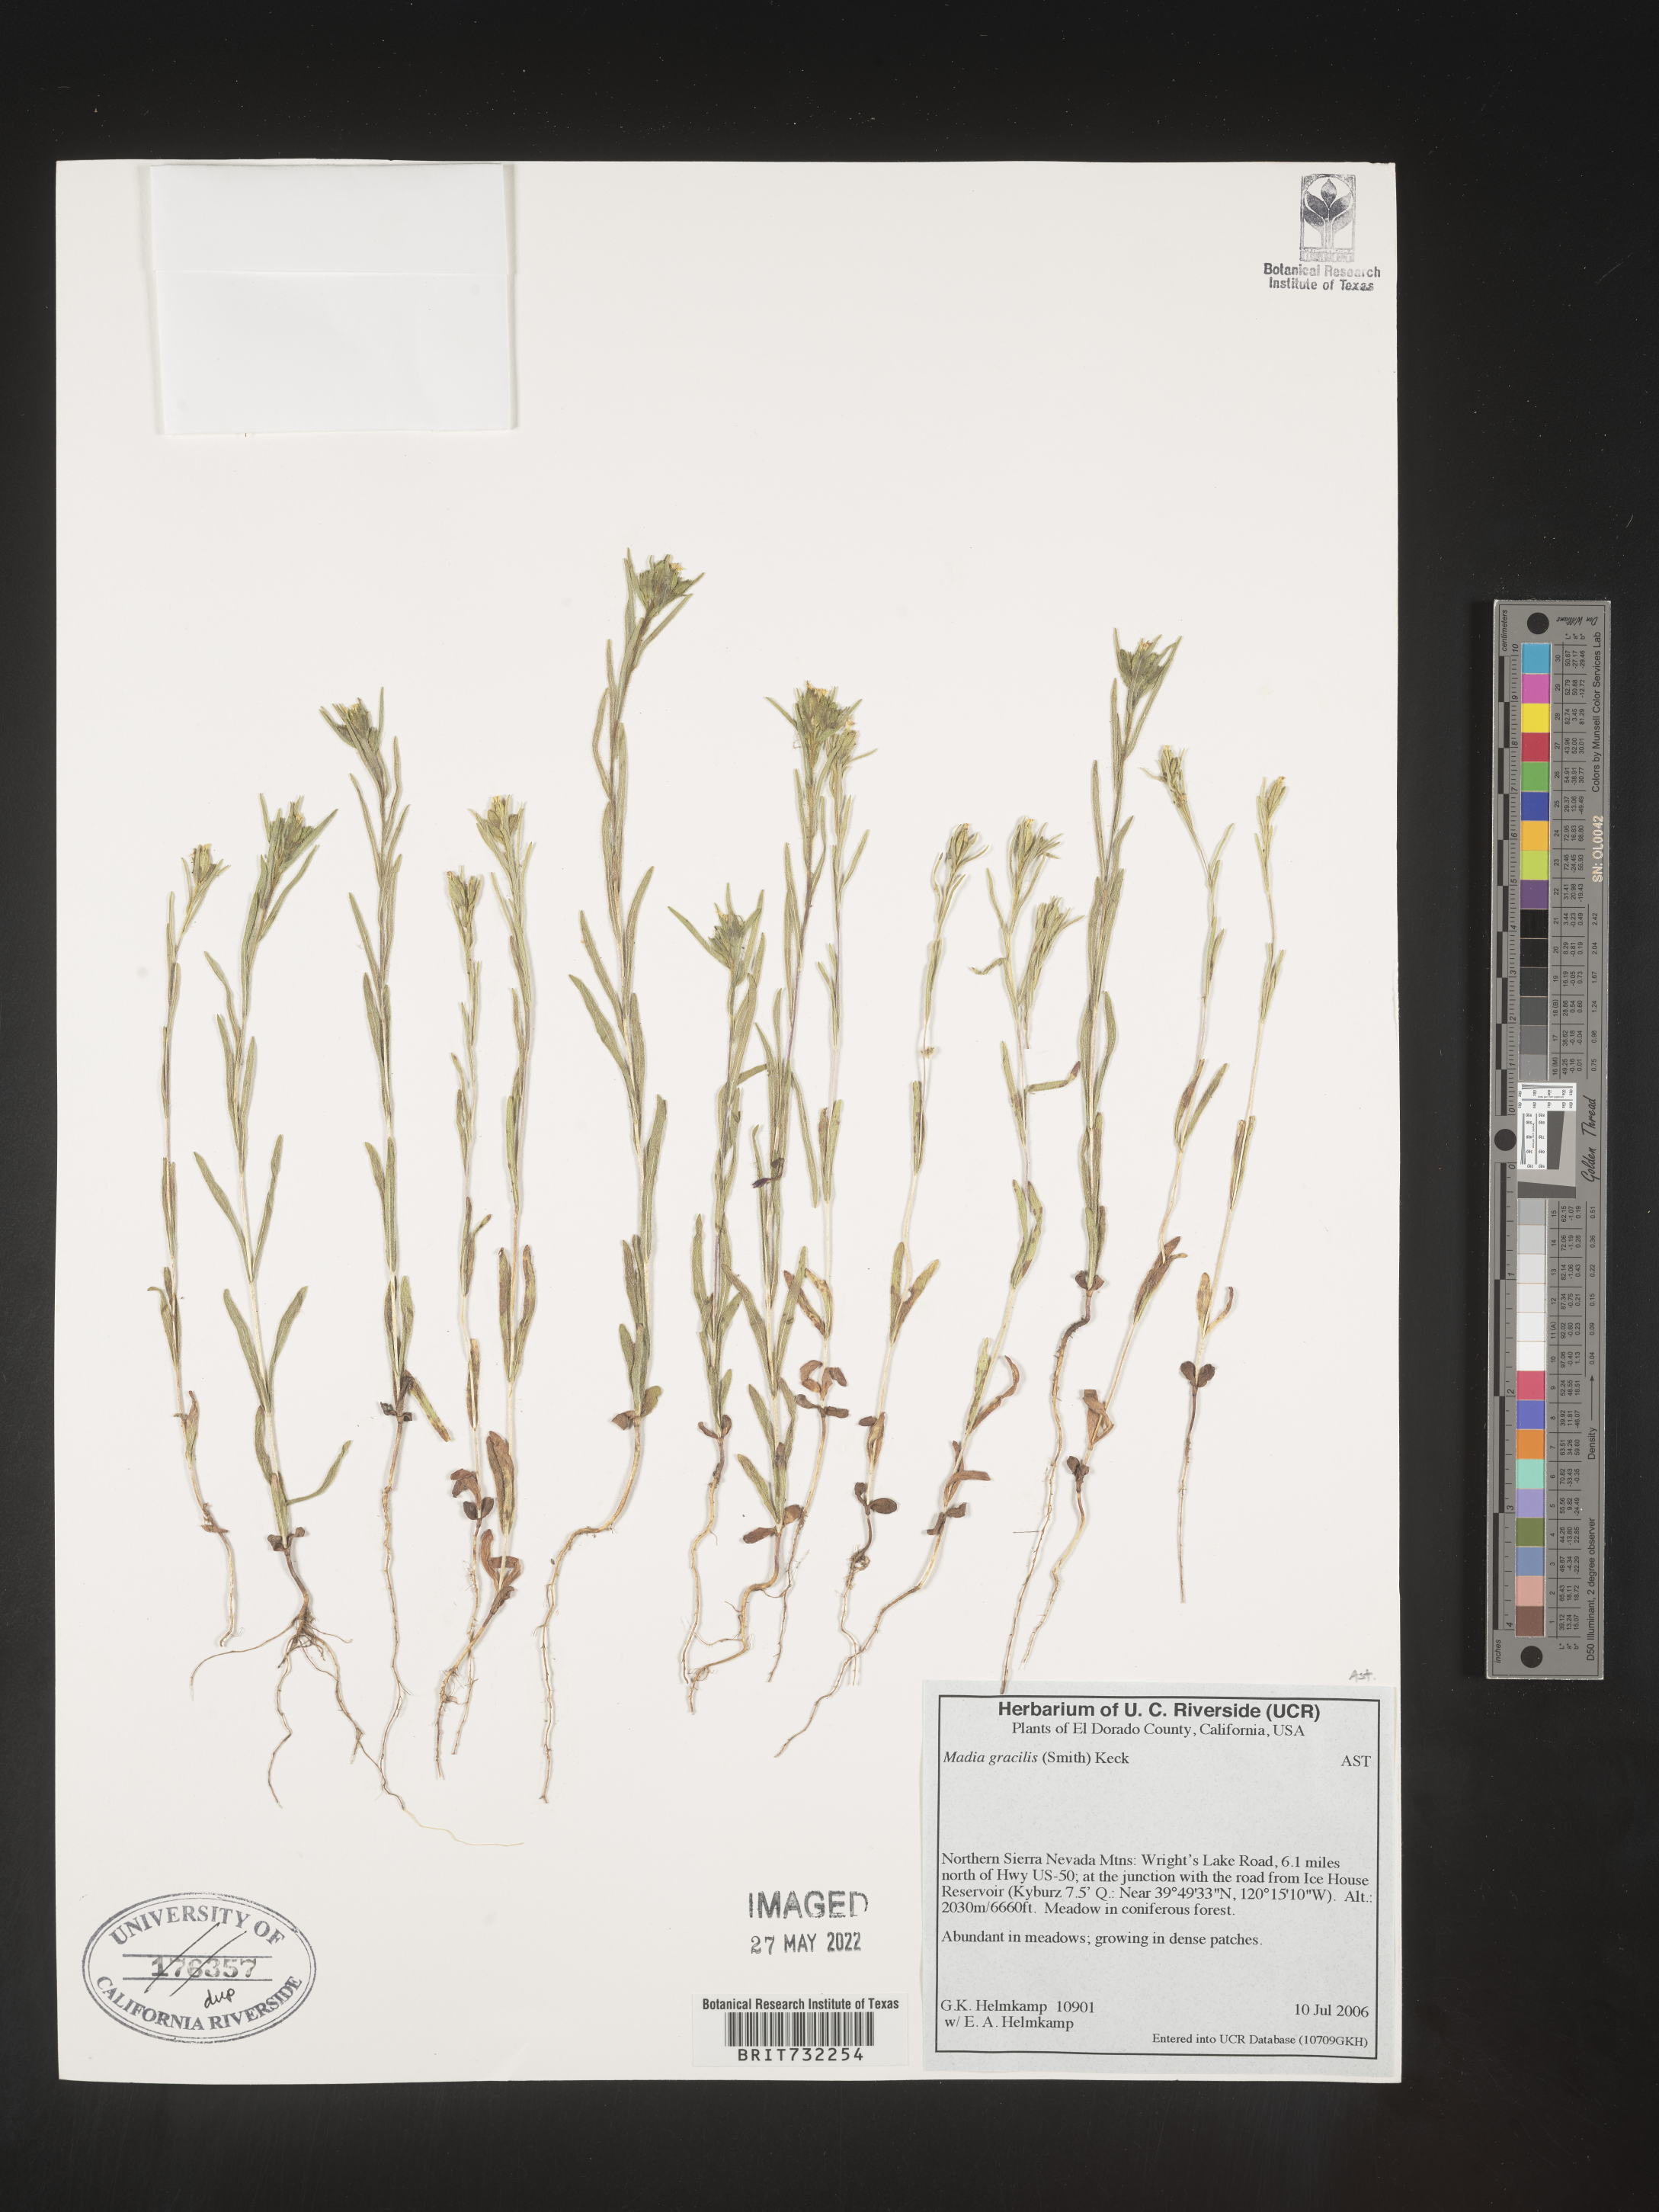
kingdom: Plantae
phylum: Tracheophyta
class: Magnoliopsida
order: Asterales
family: Asteraceae
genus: Madia
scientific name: Madia gracilis
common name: Grassy tarweed
